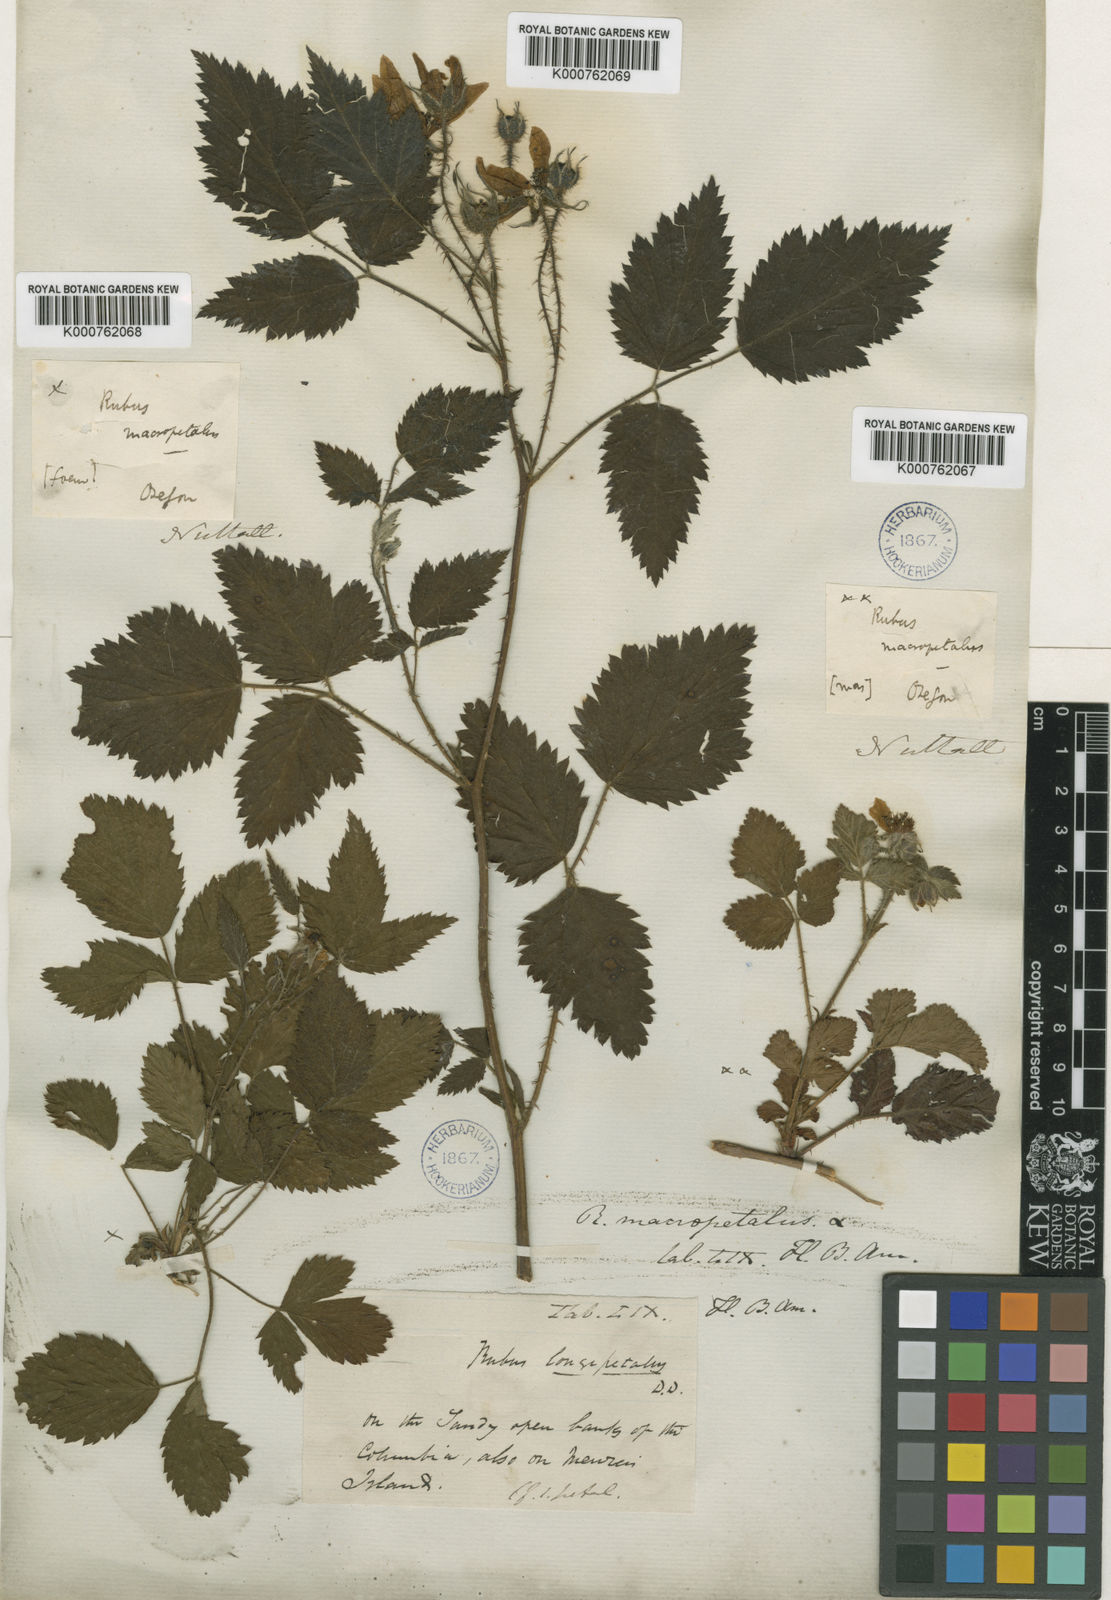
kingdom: Plantae
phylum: Tracheophyta
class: Magnoliopsida
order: Rosales
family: Rosaceae
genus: Rubus
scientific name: Rubus macropetalus
